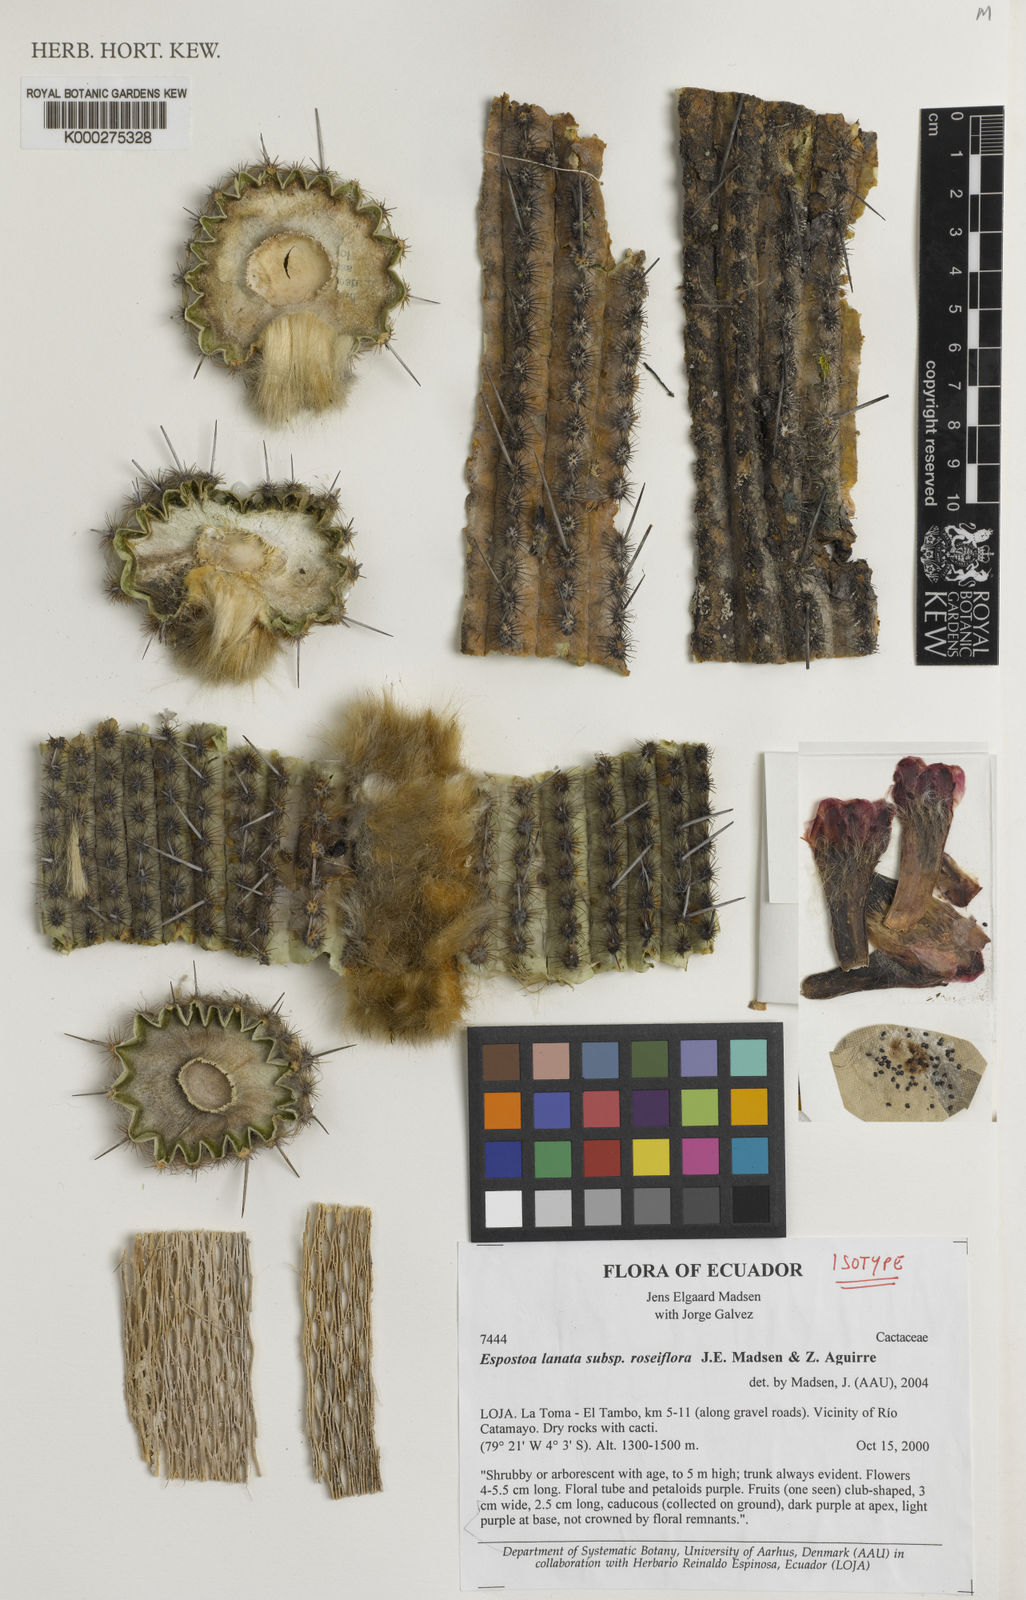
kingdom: Plantae
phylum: Tracheophyta
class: Magnoliopsida
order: Caryophyllales
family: Cactaceae
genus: Espostoa
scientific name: Espostoa lanata
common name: Snowball cactus
